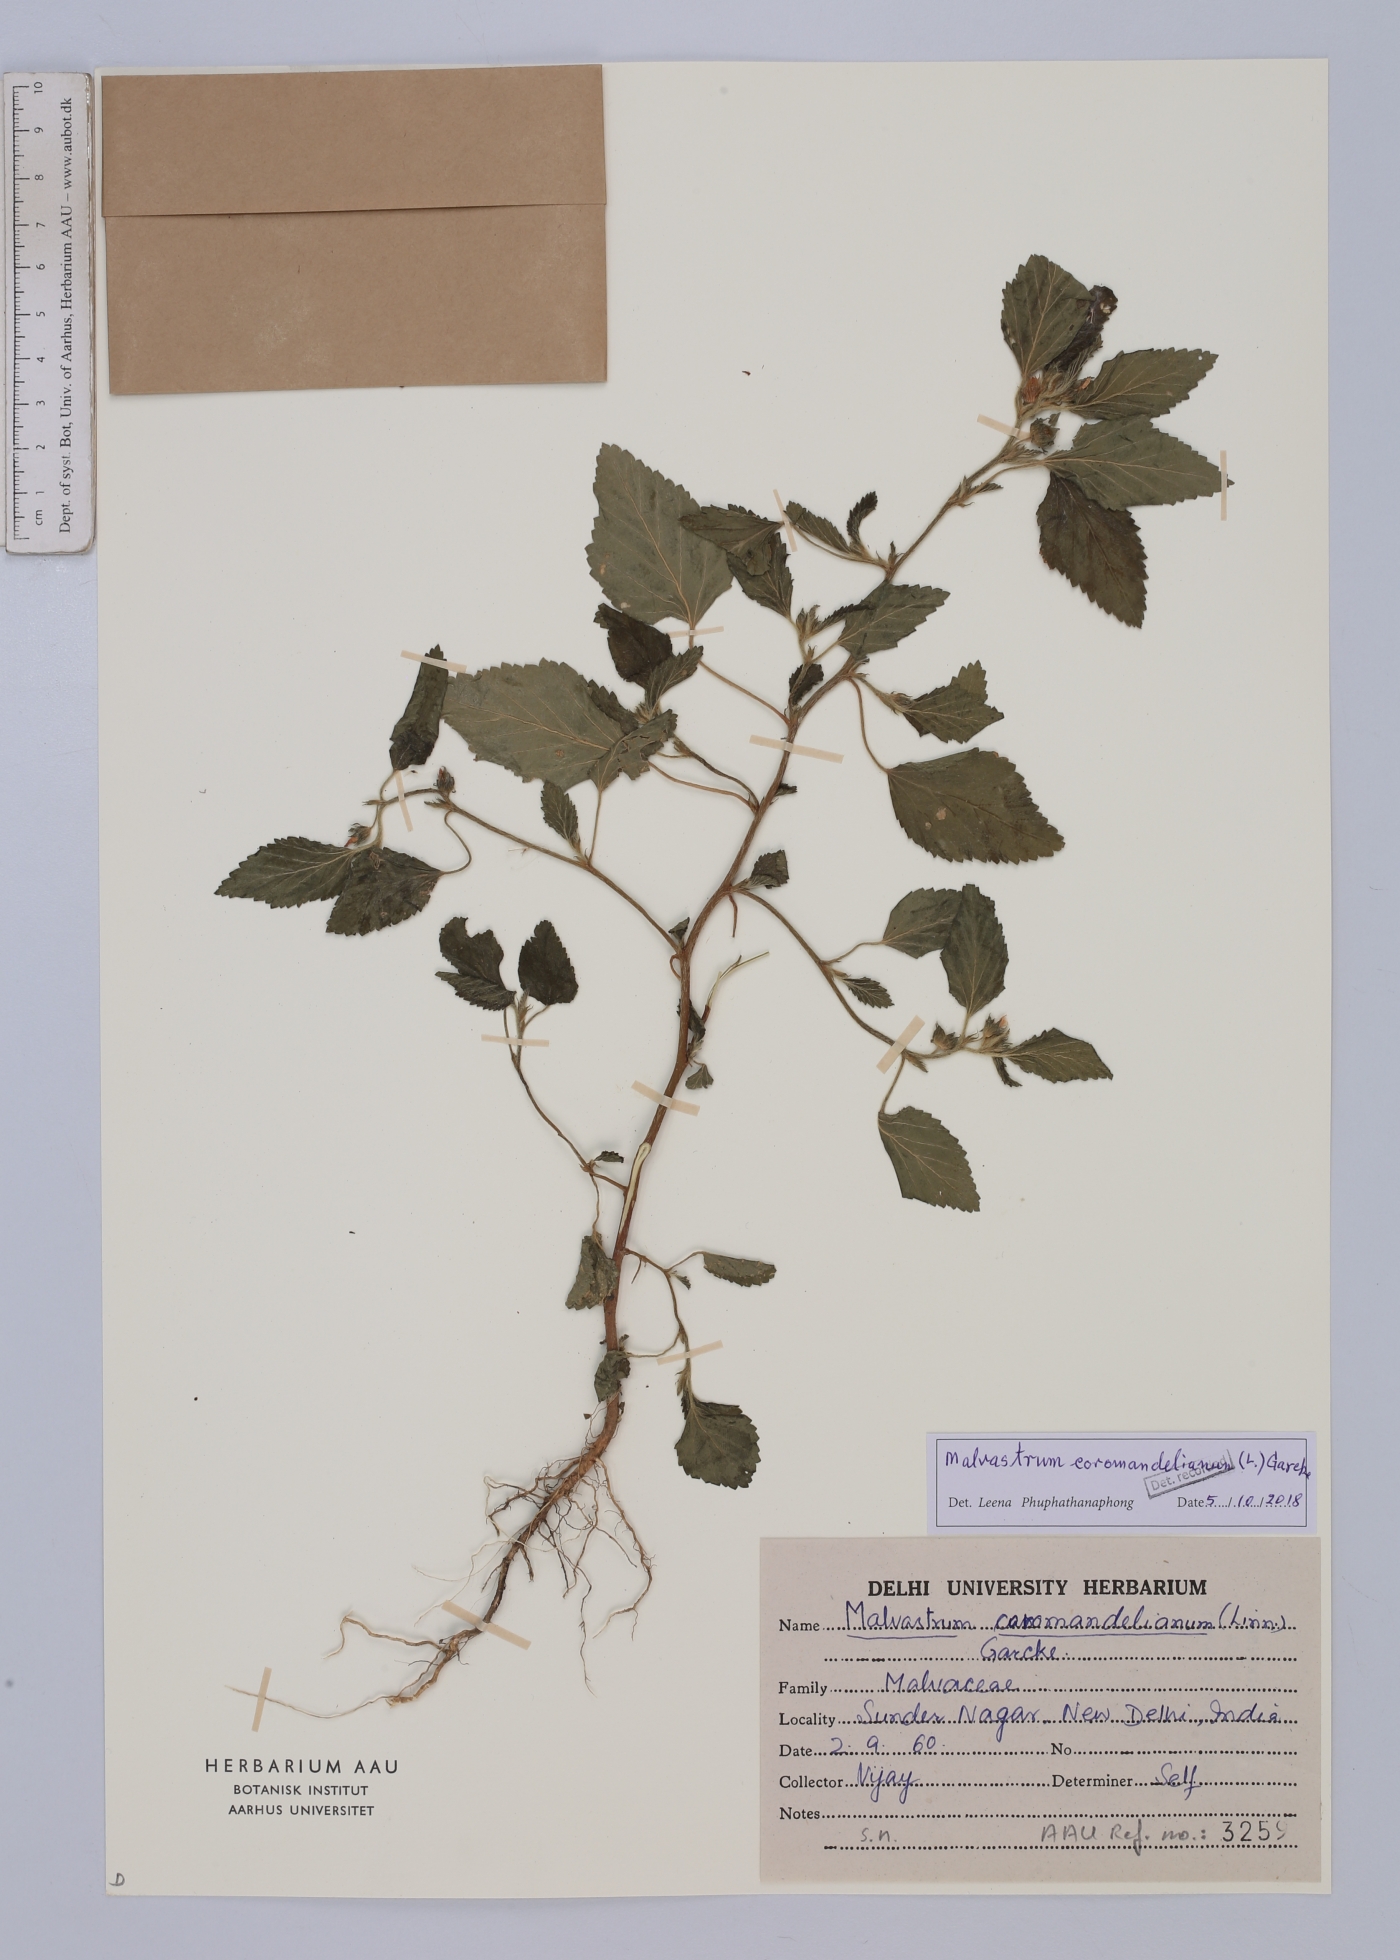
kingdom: Plantae
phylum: Tracheophyta
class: Magnoliopsida
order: Malvales
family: Malvaceae
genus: Malvastrum
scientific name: Malvastrum coromandelianum
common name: Threelobe false mallow
